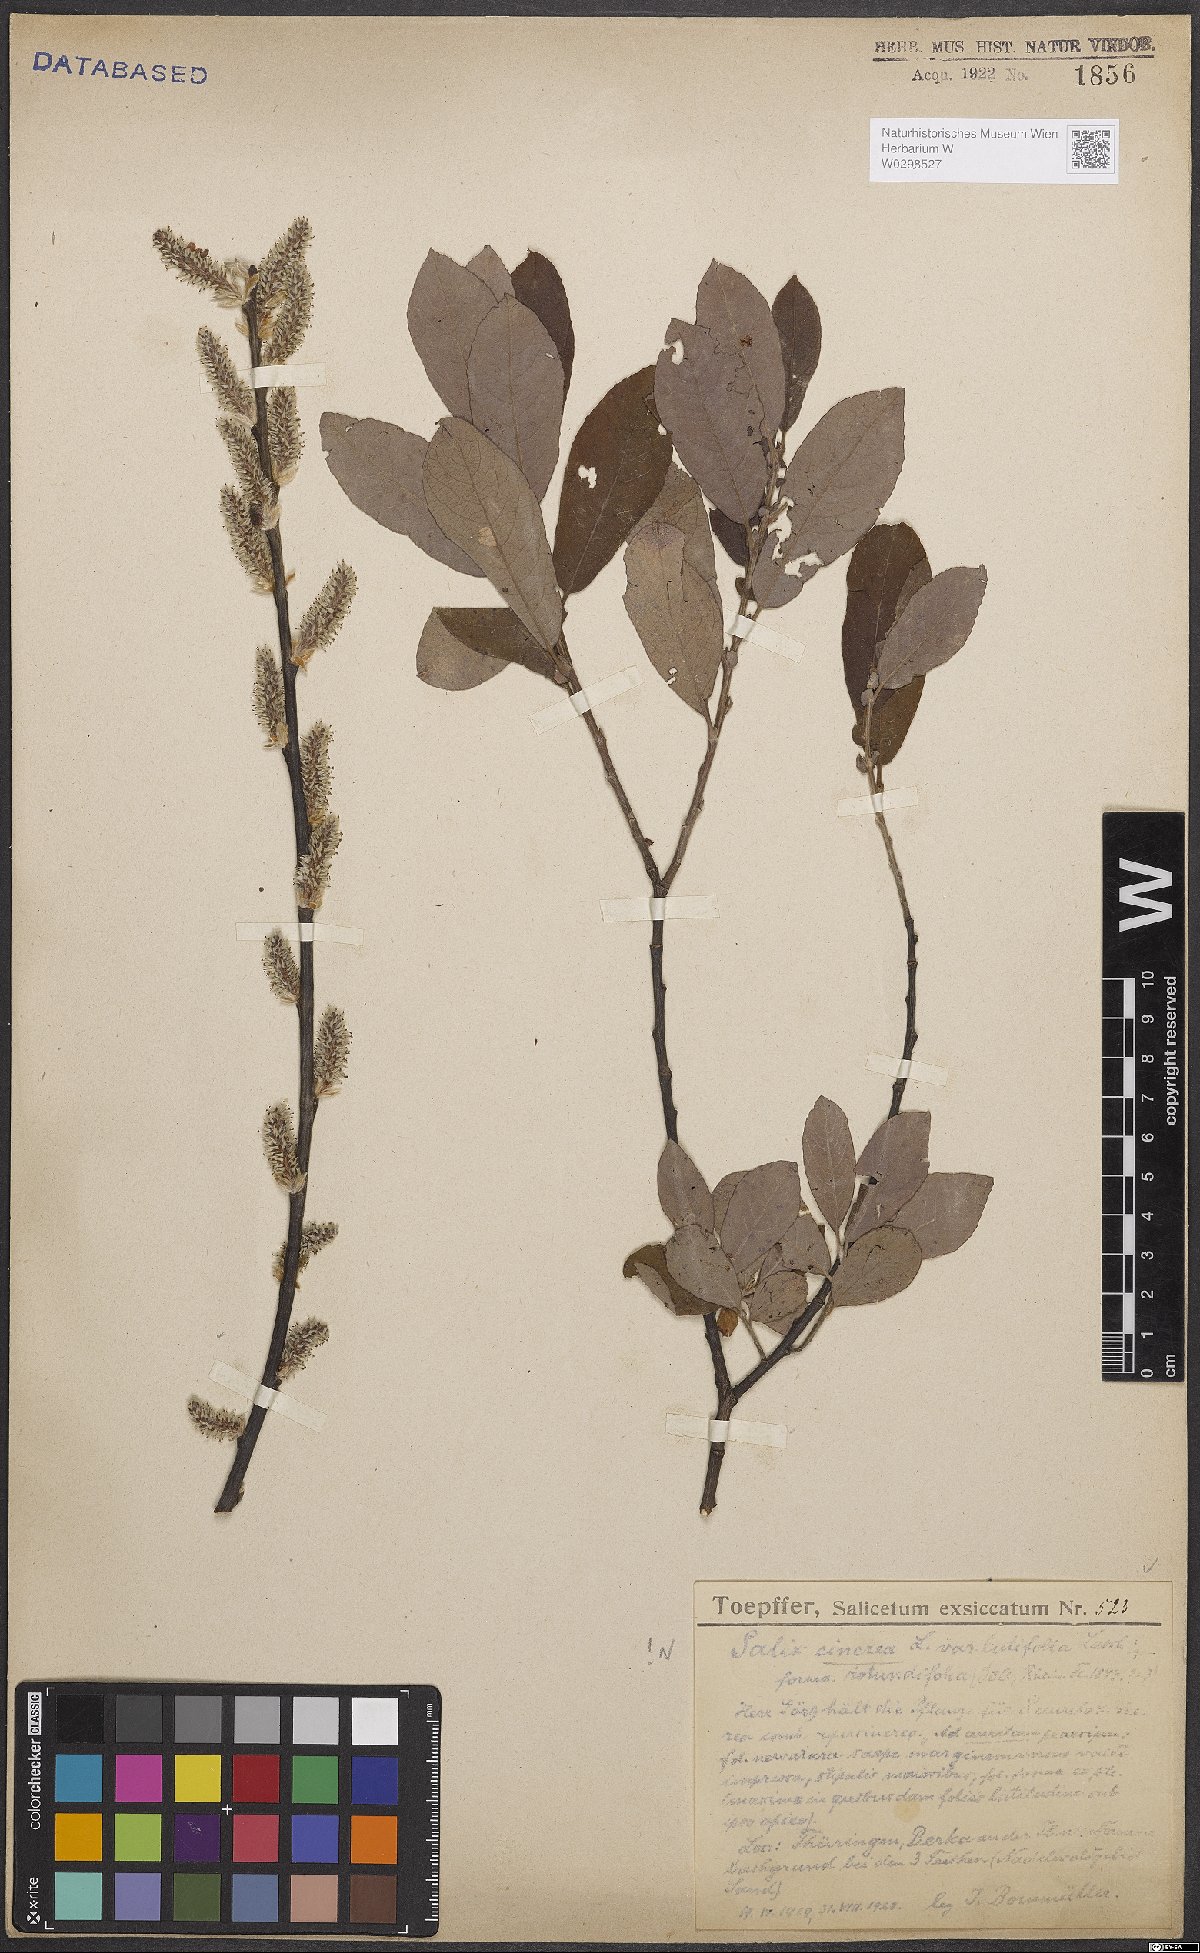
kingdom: Plantae
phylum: Tracheophyta
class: Magnoliopsida
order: Malpighiales
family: Salicaceae
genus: Salix
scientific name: Salix cinerea
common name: Common sallow
